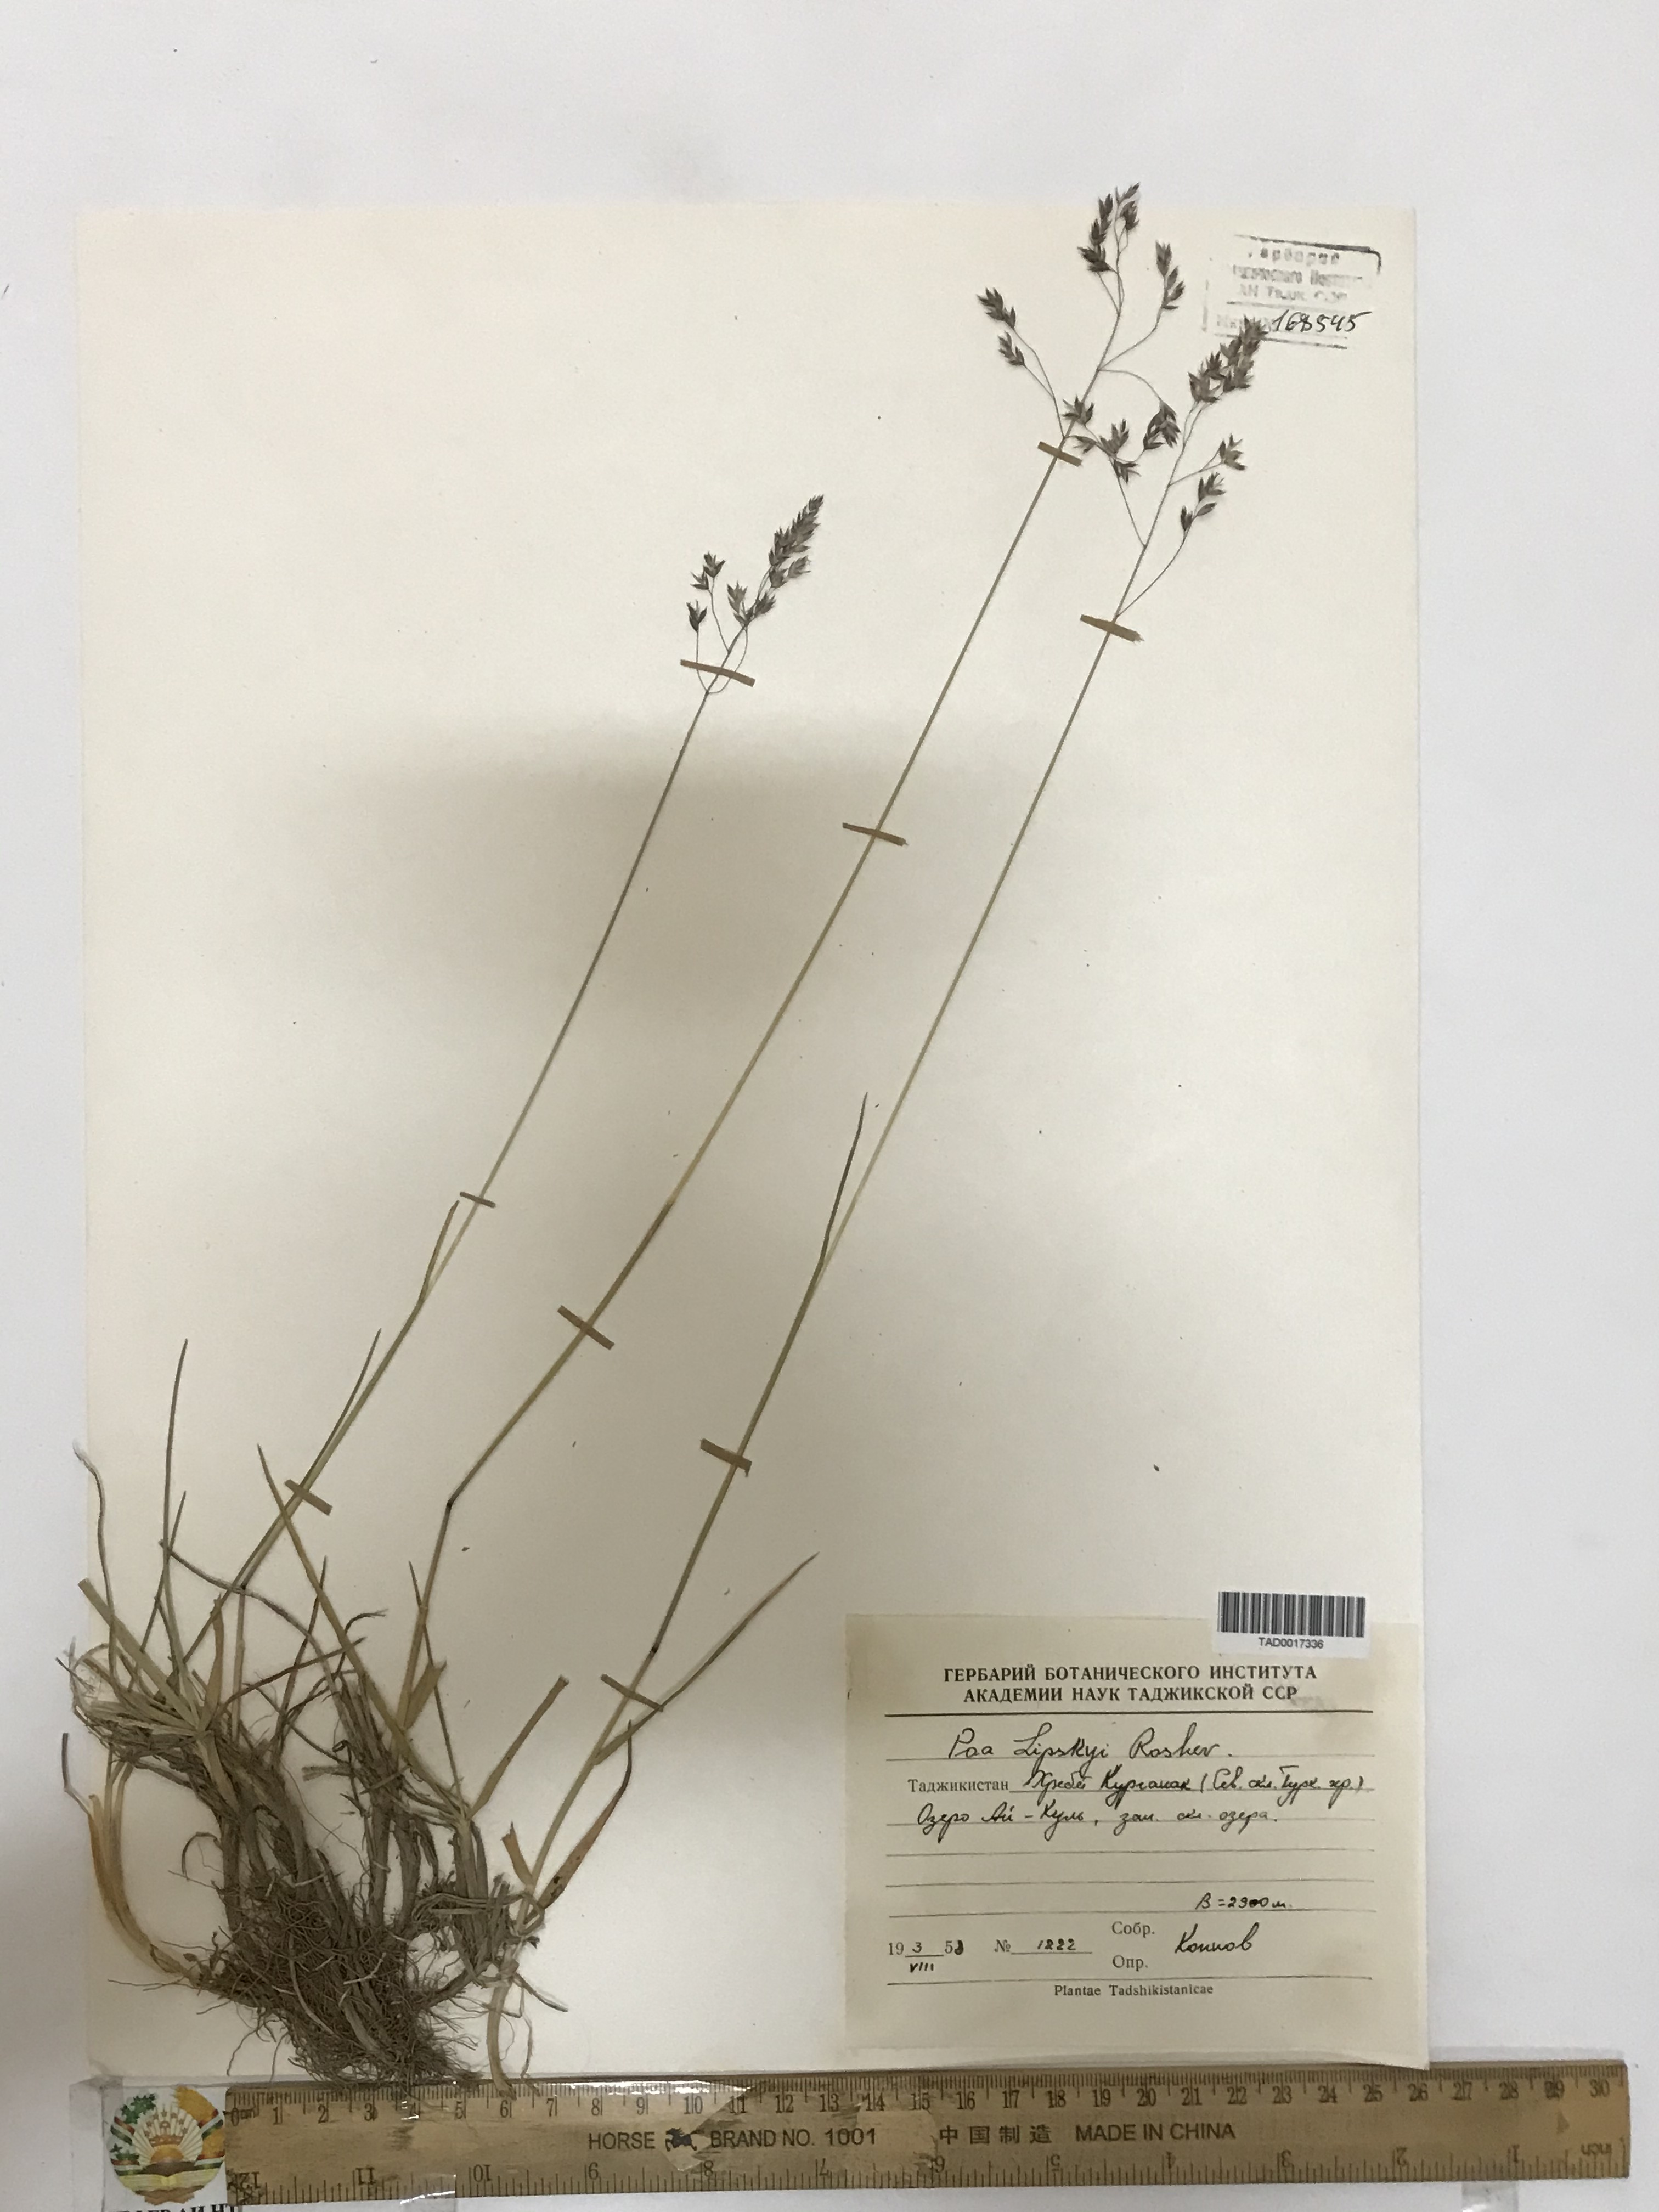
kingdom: Plantae
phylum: Tracheophyta
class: Liliopsida
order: Poales
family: Poaceae
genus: Poa
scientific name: Poa lipskyi
